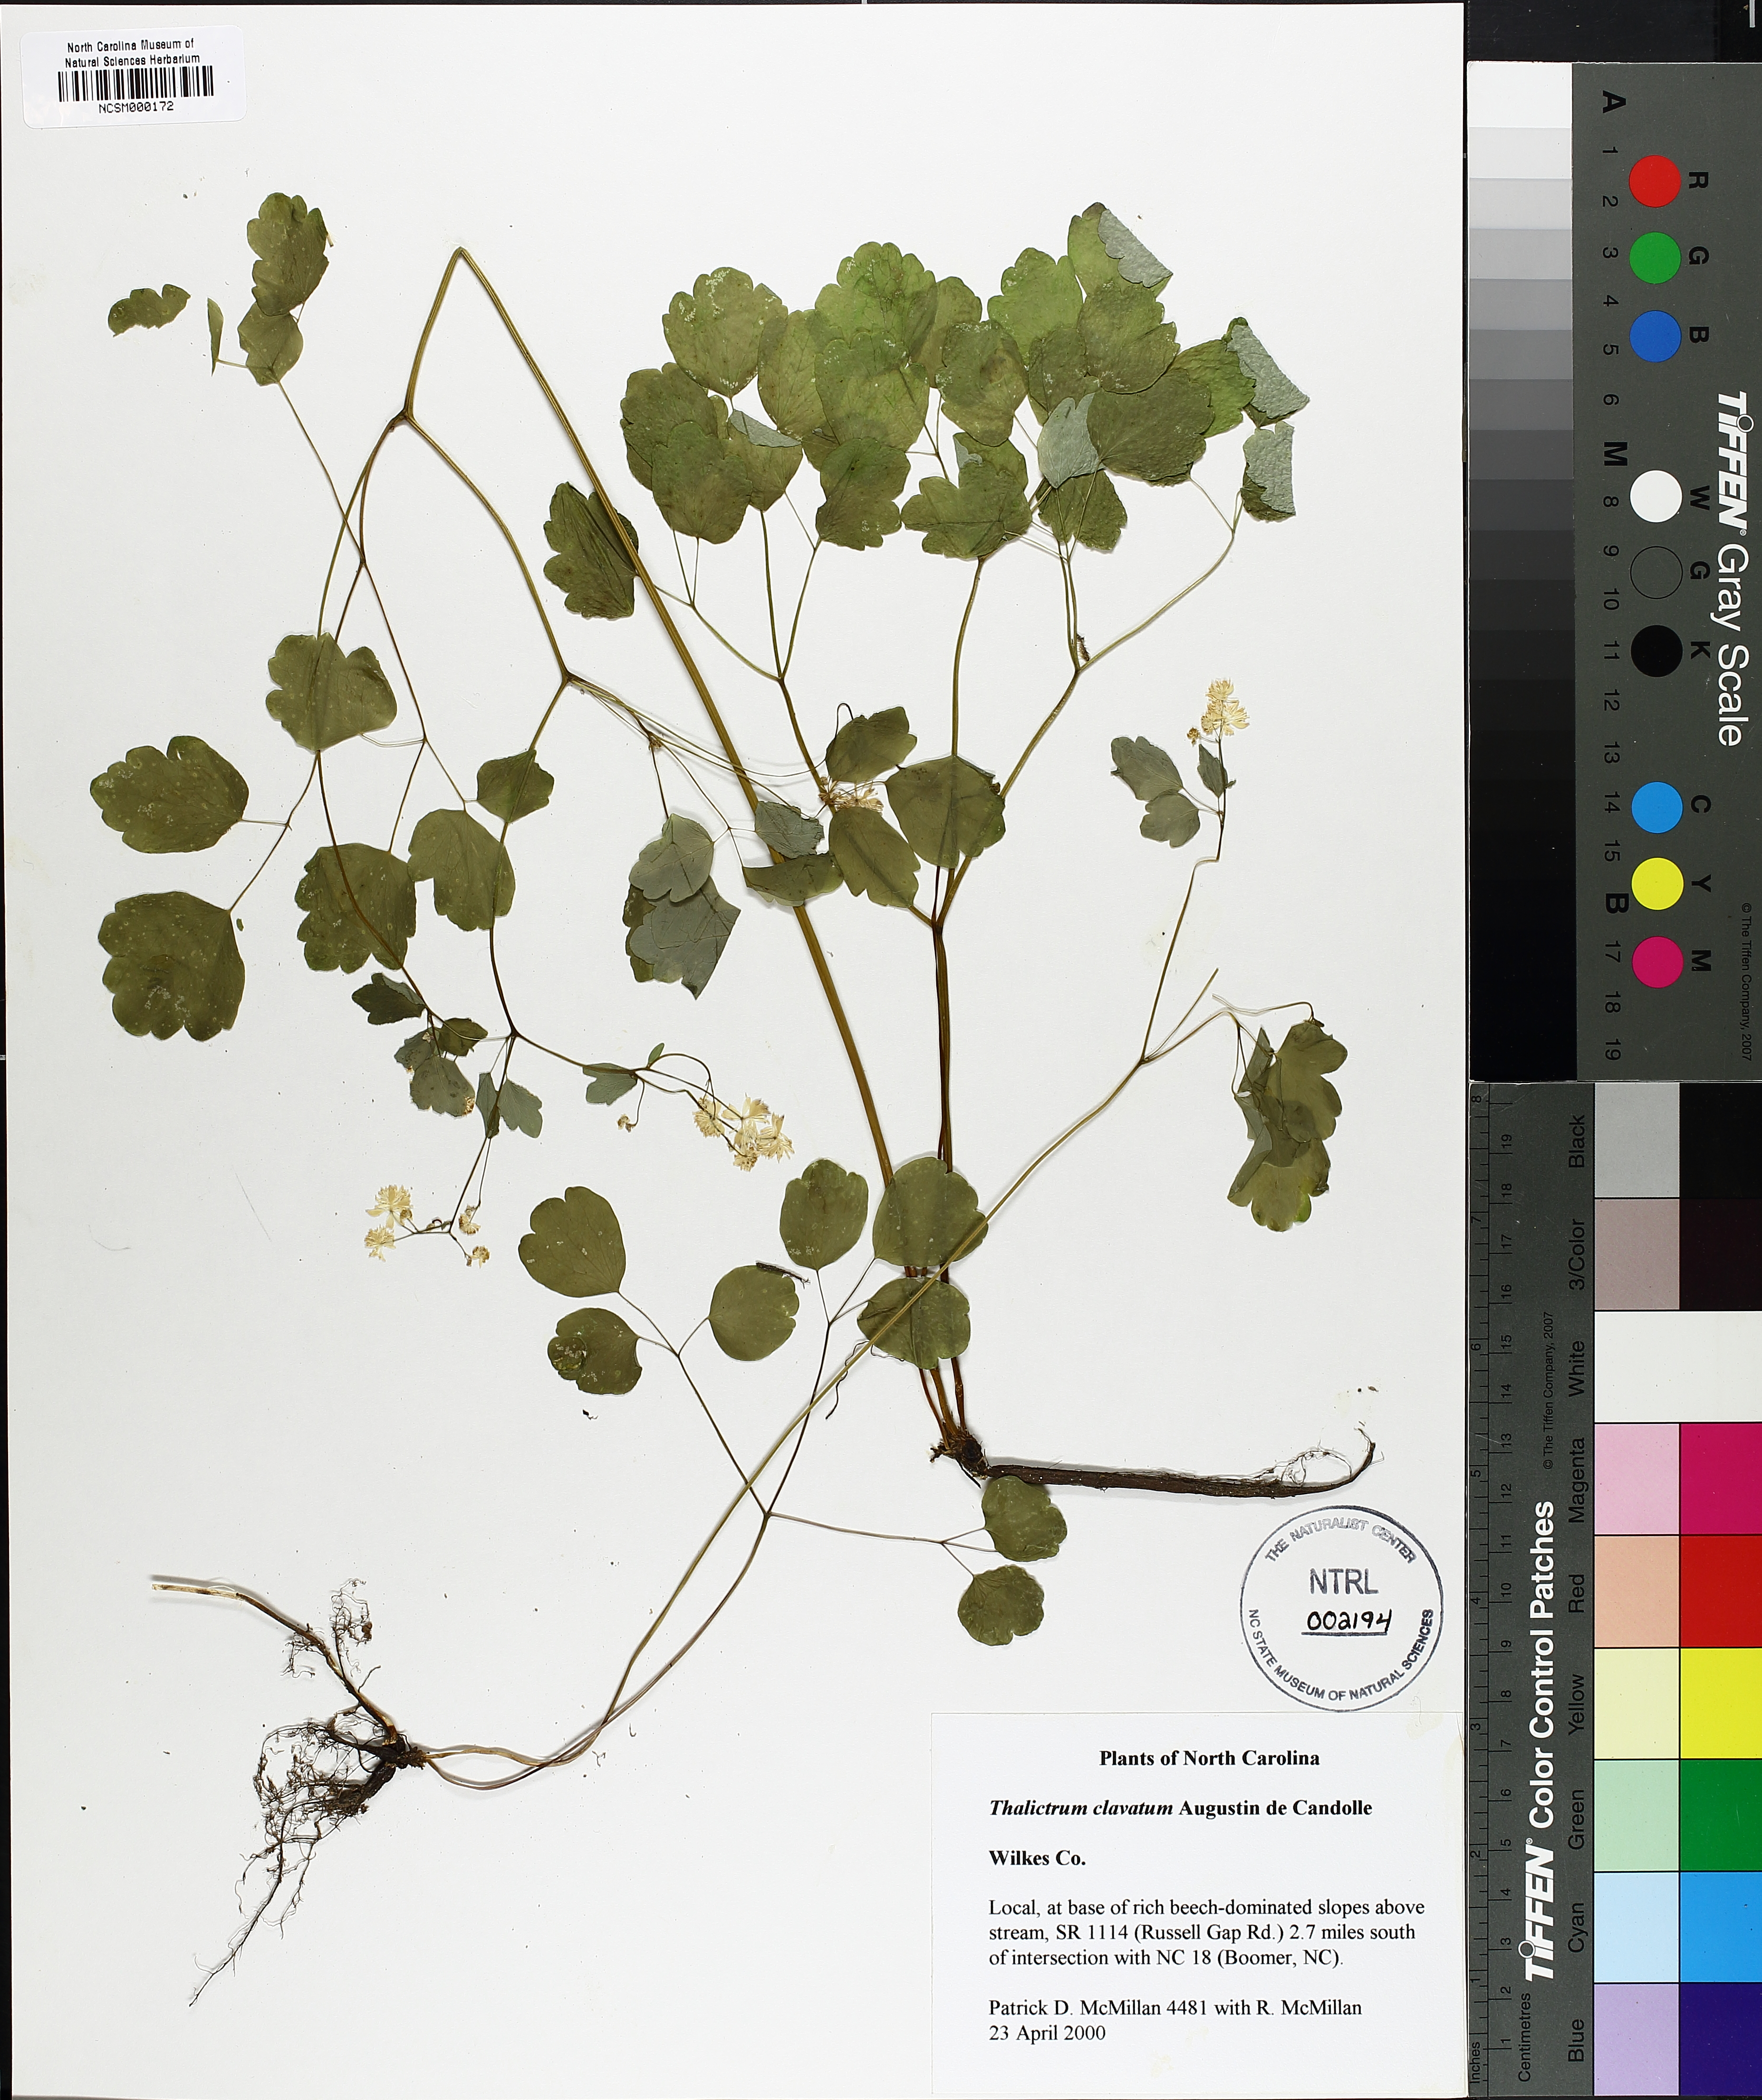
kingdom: Plantae
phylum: Tracheophyta
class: Magnoliopsida
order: Ranunculales
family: Ranunculaceae
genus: Thalictrum
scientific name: Thalictrum clavatum
